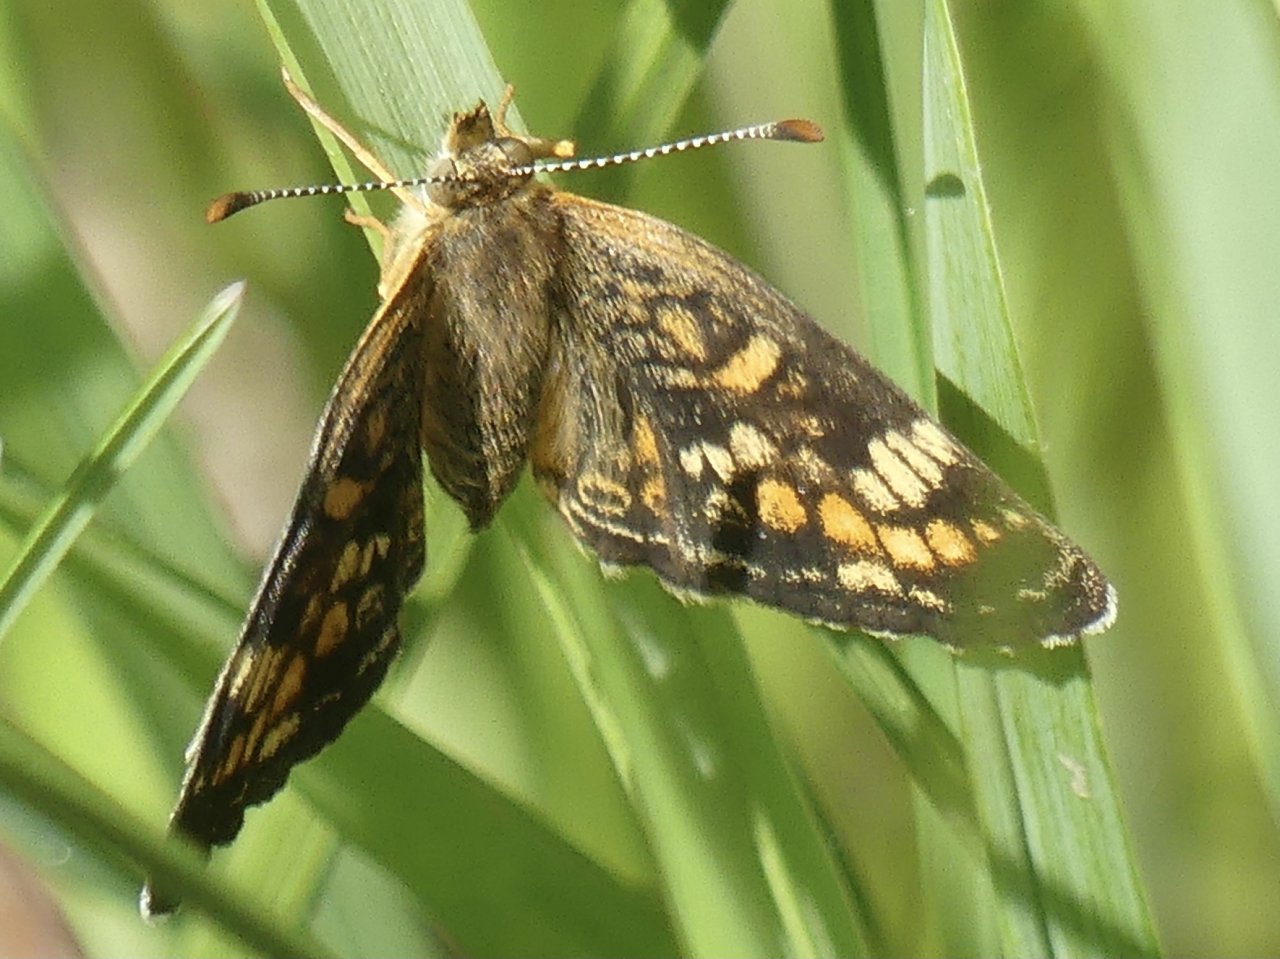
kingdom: Animalia
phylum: Arthropoda
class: Insecta
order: Lepidoptera
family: Nymphalidae
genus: Phyciodes
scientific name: Phyciodes tharos
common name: Northern Crescent
